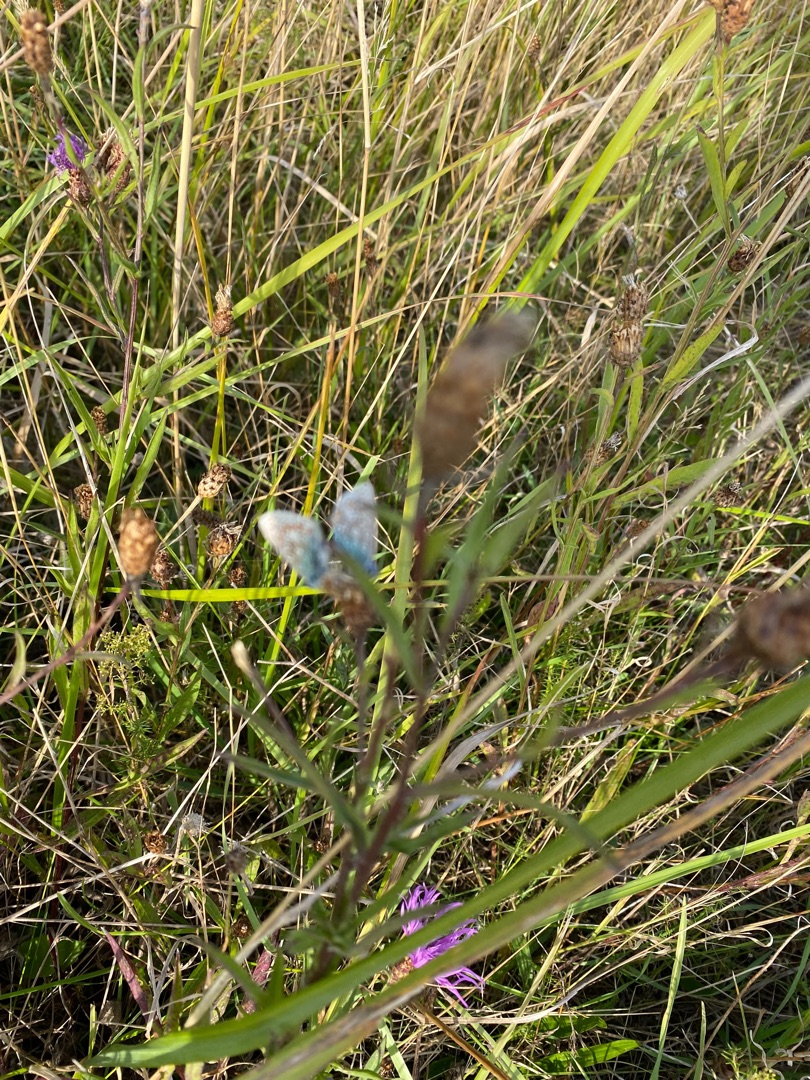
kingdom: Animalia
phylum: Arthropoda
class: Insecta
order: Lepidoptera
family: Lycaenidae
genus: Polyommatus
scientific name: Polyommatus icarus
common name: Almindelig blåfugl
